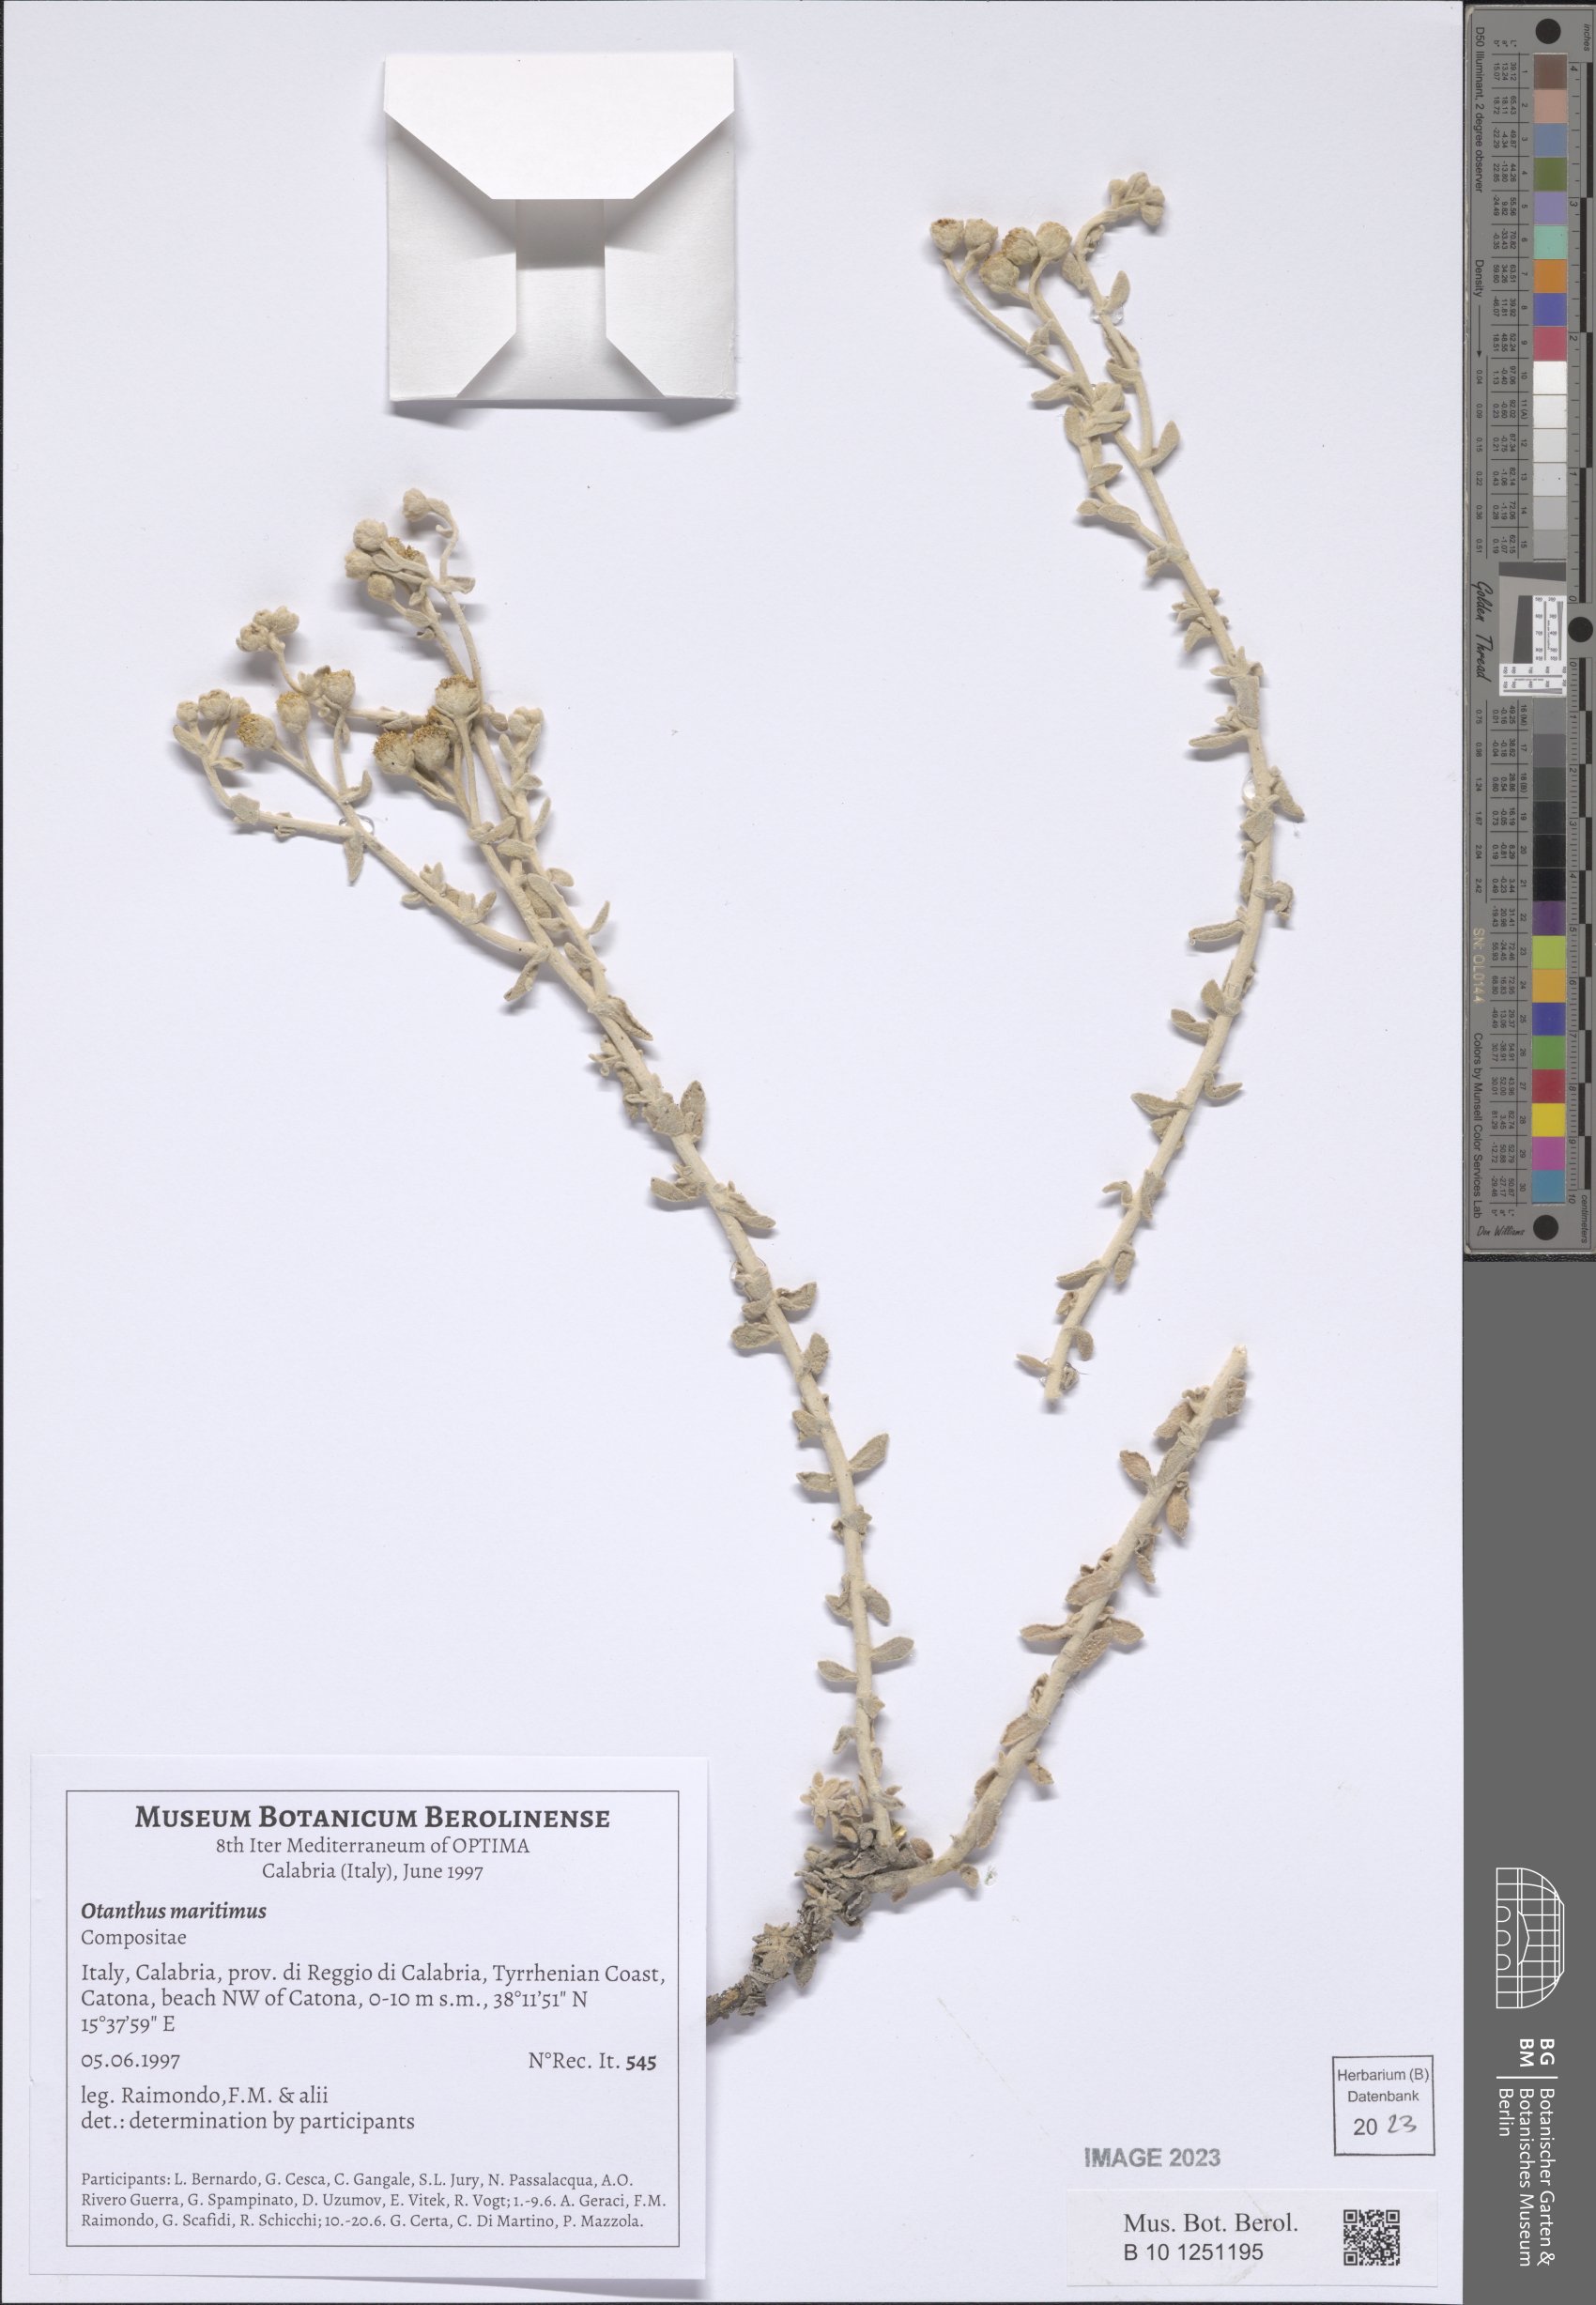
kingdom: Plantae
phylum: Tracheophyta
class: Magnoliopsida
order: Asterales
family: Asteraceae
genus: Achillea
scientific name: Achillea maritima
